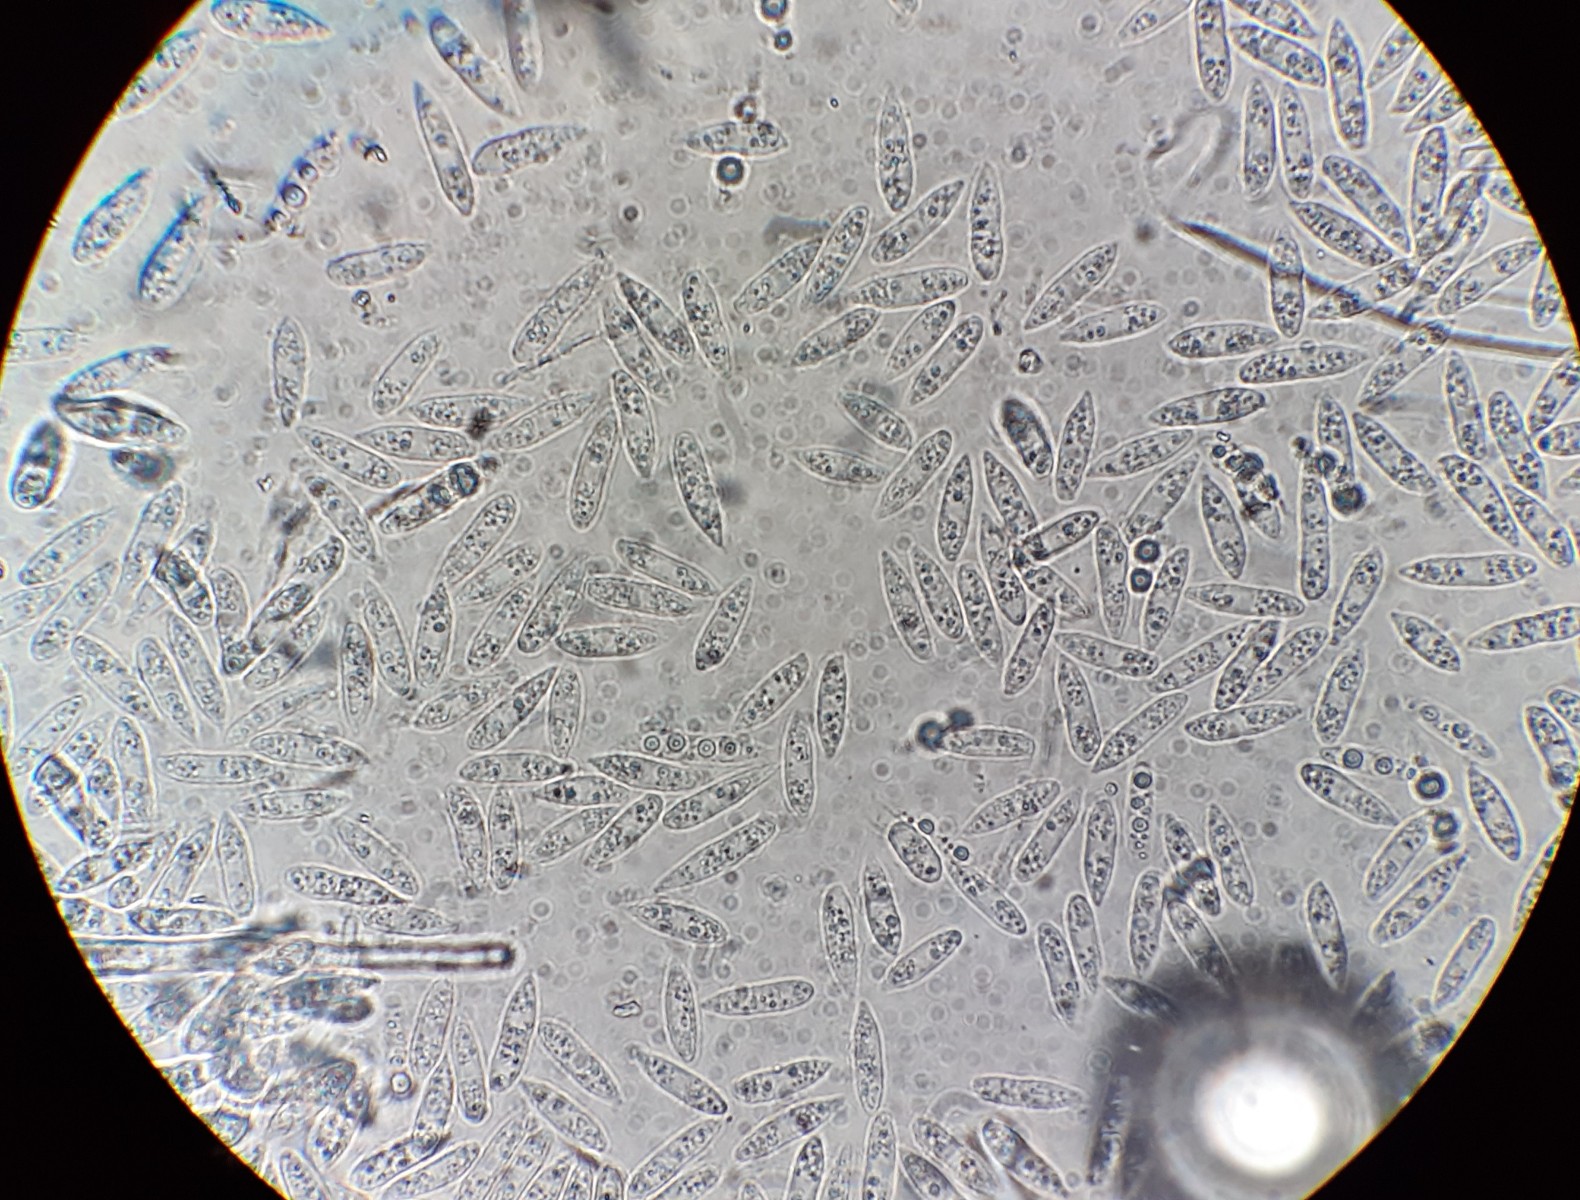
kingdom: Fungi
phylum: Ascomycota
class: Leotiomycetes
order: Helotiales
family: Helotiaceae
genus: Hymenoscyphus
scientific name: Hymenoscyphus
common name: stilkskive
